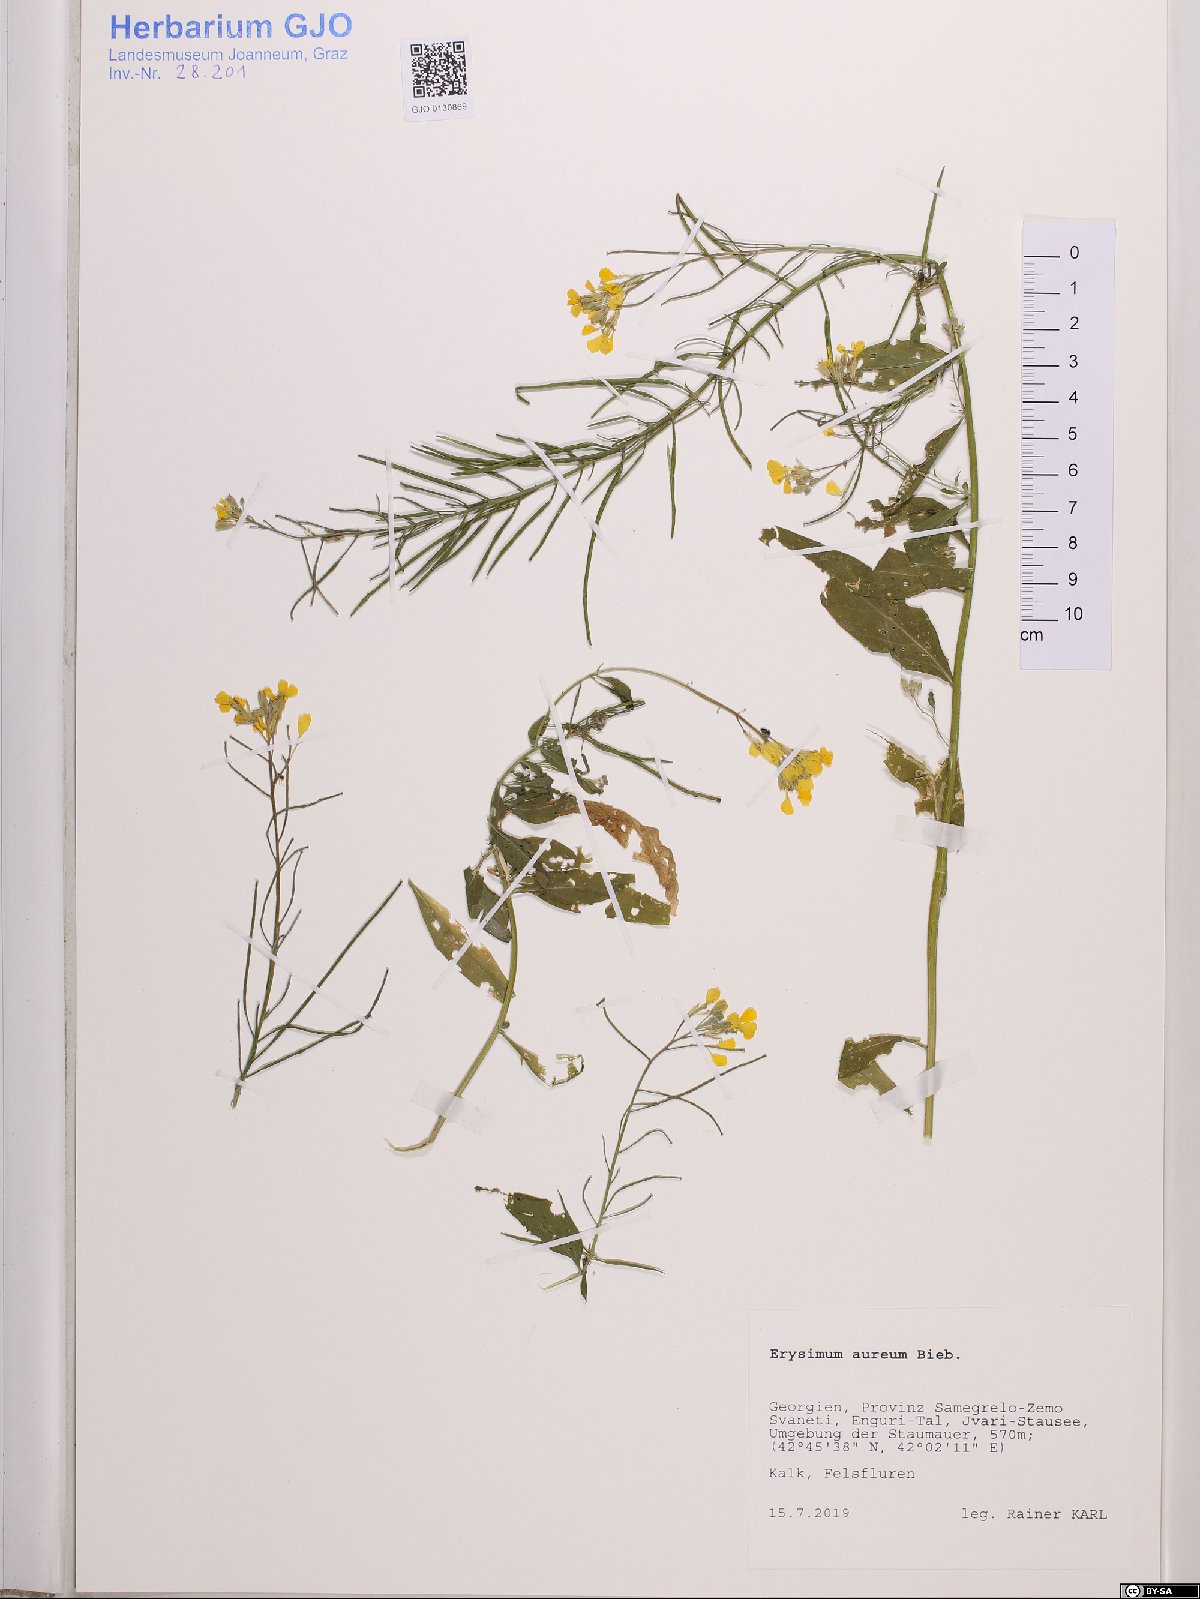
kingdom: Plantae
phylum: Tracheophyta
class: Magnoliopsida
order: Brassicales
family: Brassicaceae
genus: Erysimum
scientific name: Erysimum aureum
